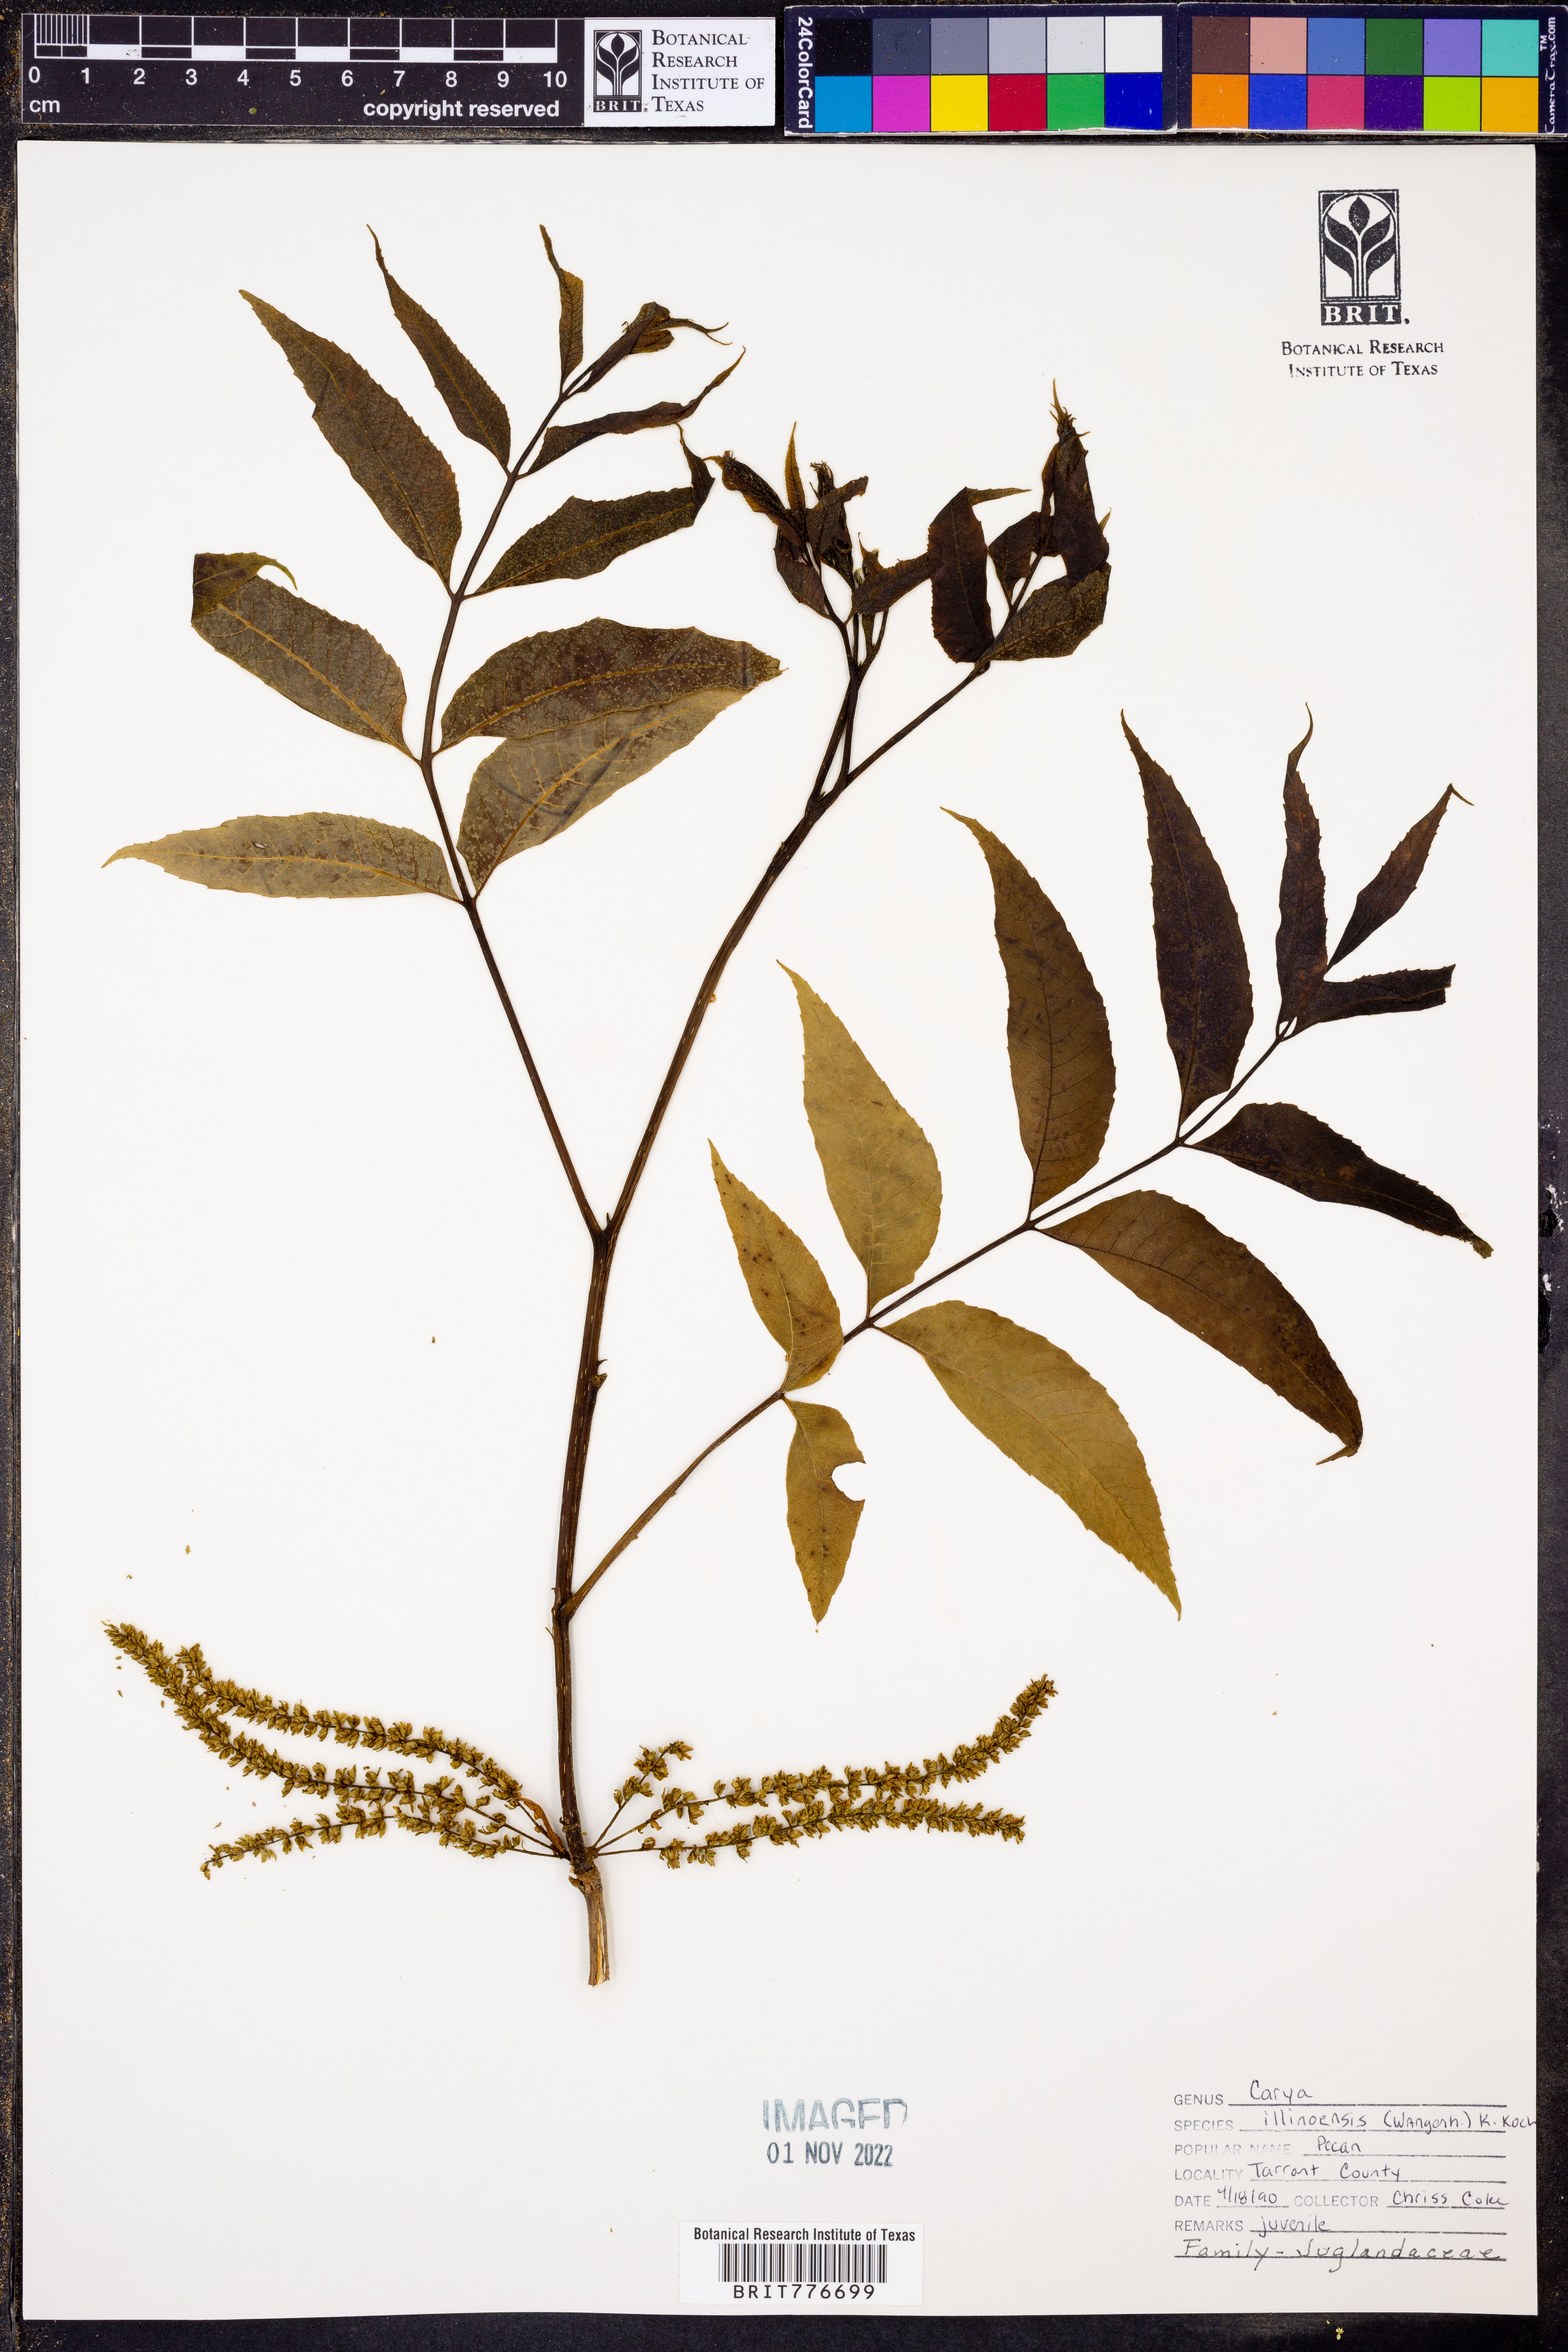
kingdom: Plantae
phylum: Tracheophyta
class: Magnoliopsida
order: Fagales
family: Juglandaceae
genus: Carya
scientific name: Carya
